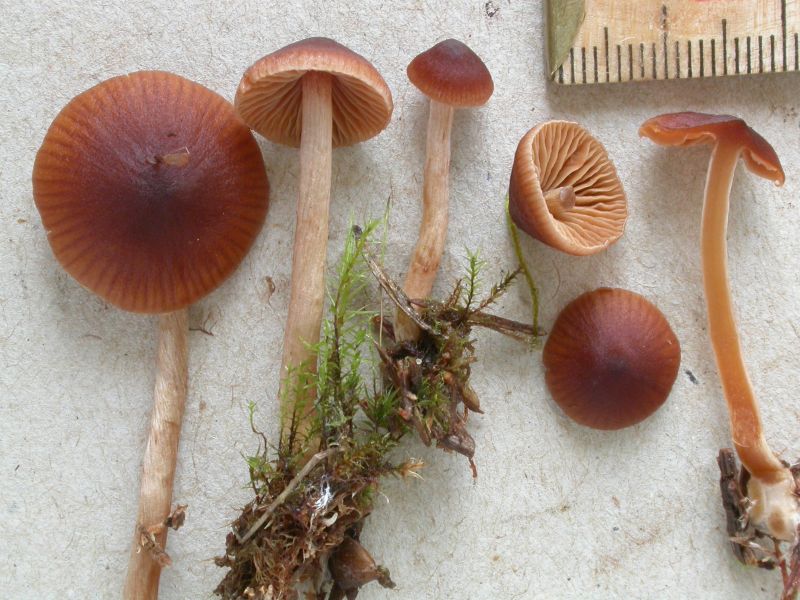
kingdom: Fungi
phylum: Basidiomycota
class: Agaricomycetes
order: Agaricales
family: Cortinariaceae
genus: Cortinarius
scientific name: Cortinarius
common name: ræve-slørhat
